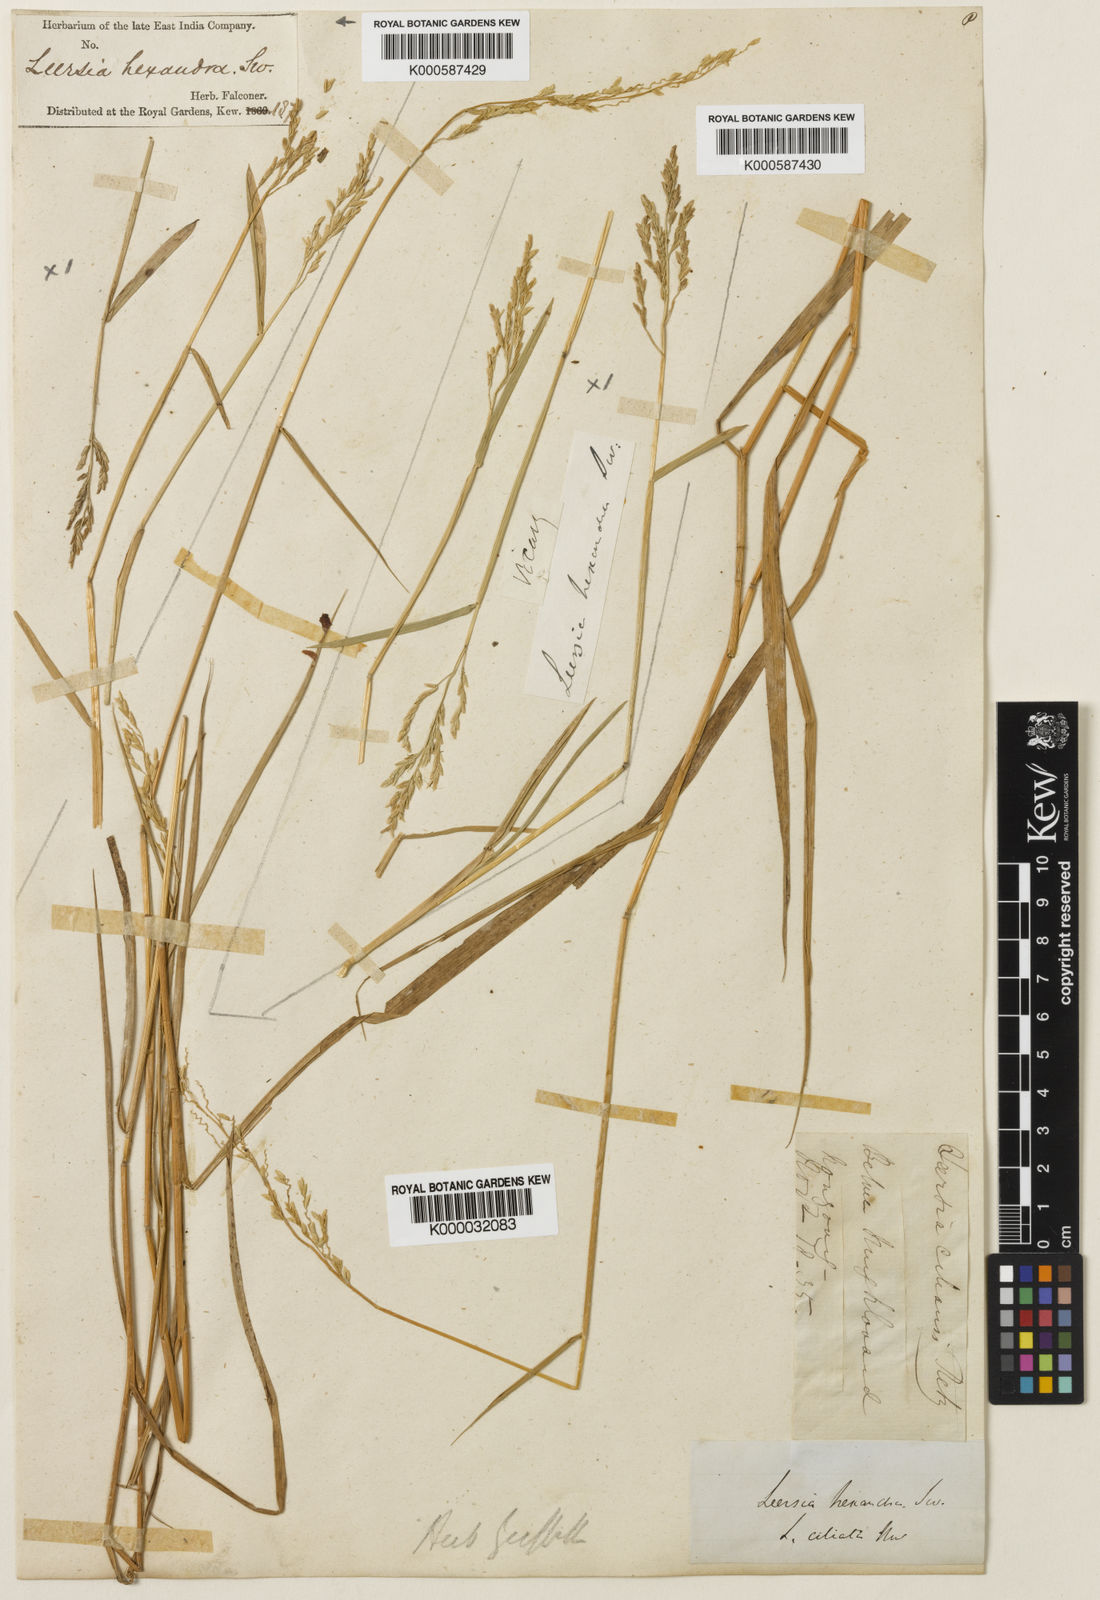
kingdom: Plantae
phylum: Tracheophyta
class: Liliopsida
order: Poales
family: Poaceae
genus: Leersia
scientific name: Leersia hexandra
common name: Southern cut grass
